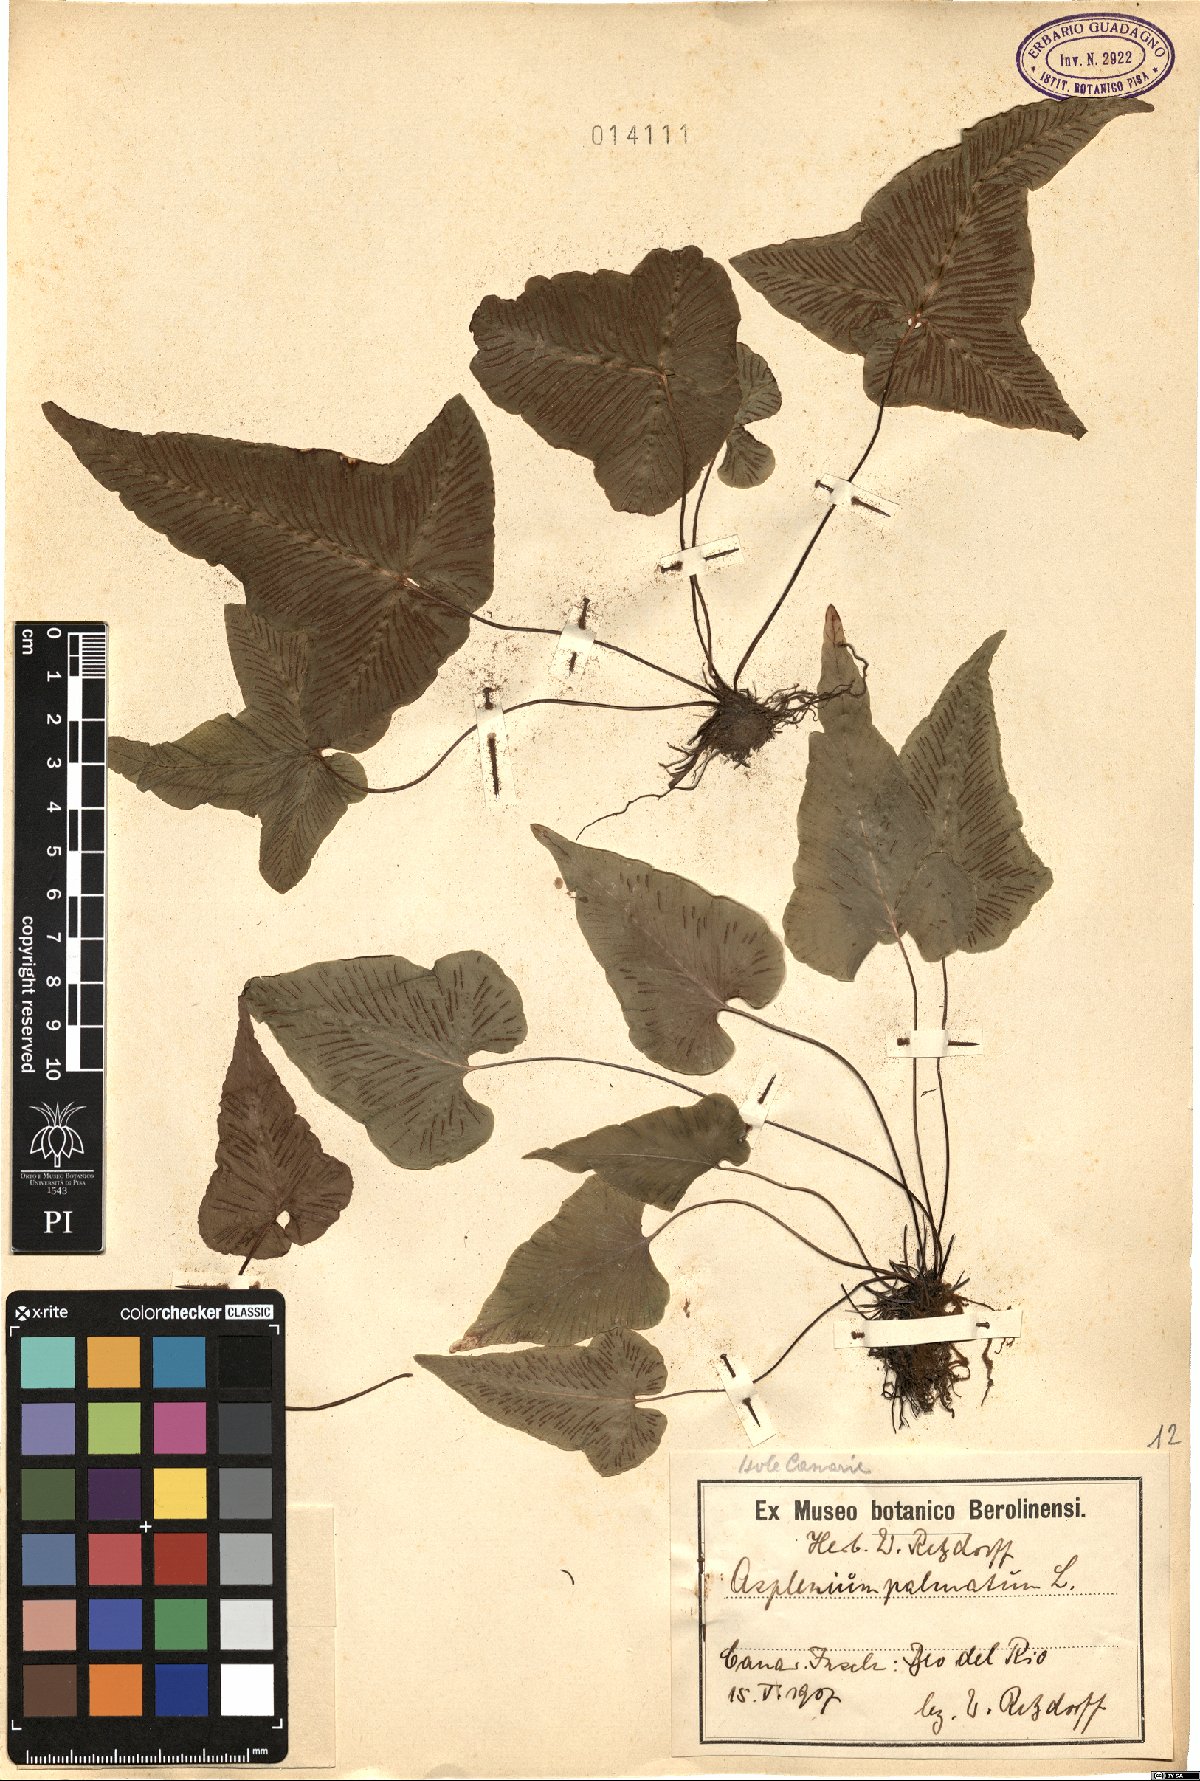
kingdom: Plantae
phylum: Tracheophyta
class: Polypodiopsida
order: Polypodiales
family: Aspleniaceae
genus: Asplenium
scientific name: Asplenium hemionitis
